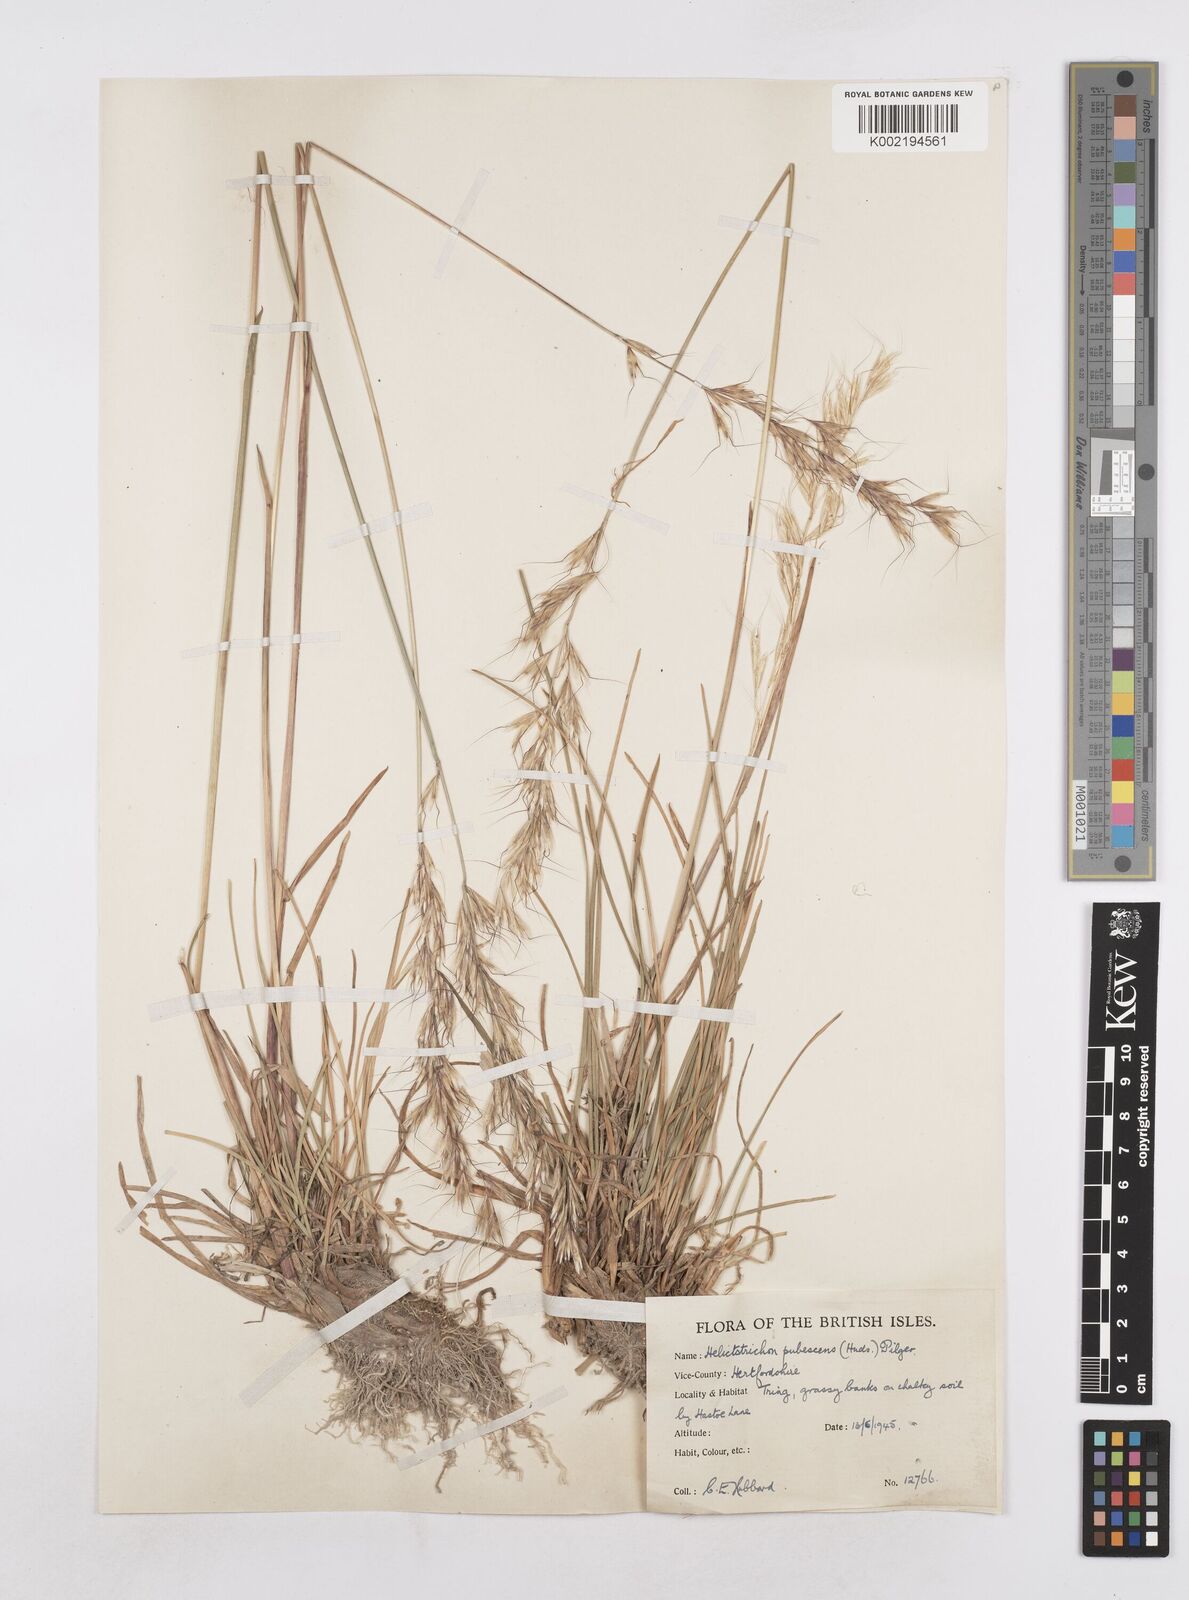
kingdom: Plantae
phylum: Tracheophyta
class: Liliopsida
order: Poales
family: Poaceae
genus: Avenula
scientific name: Avenula pubescens
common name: Downy alpine oatgrass
